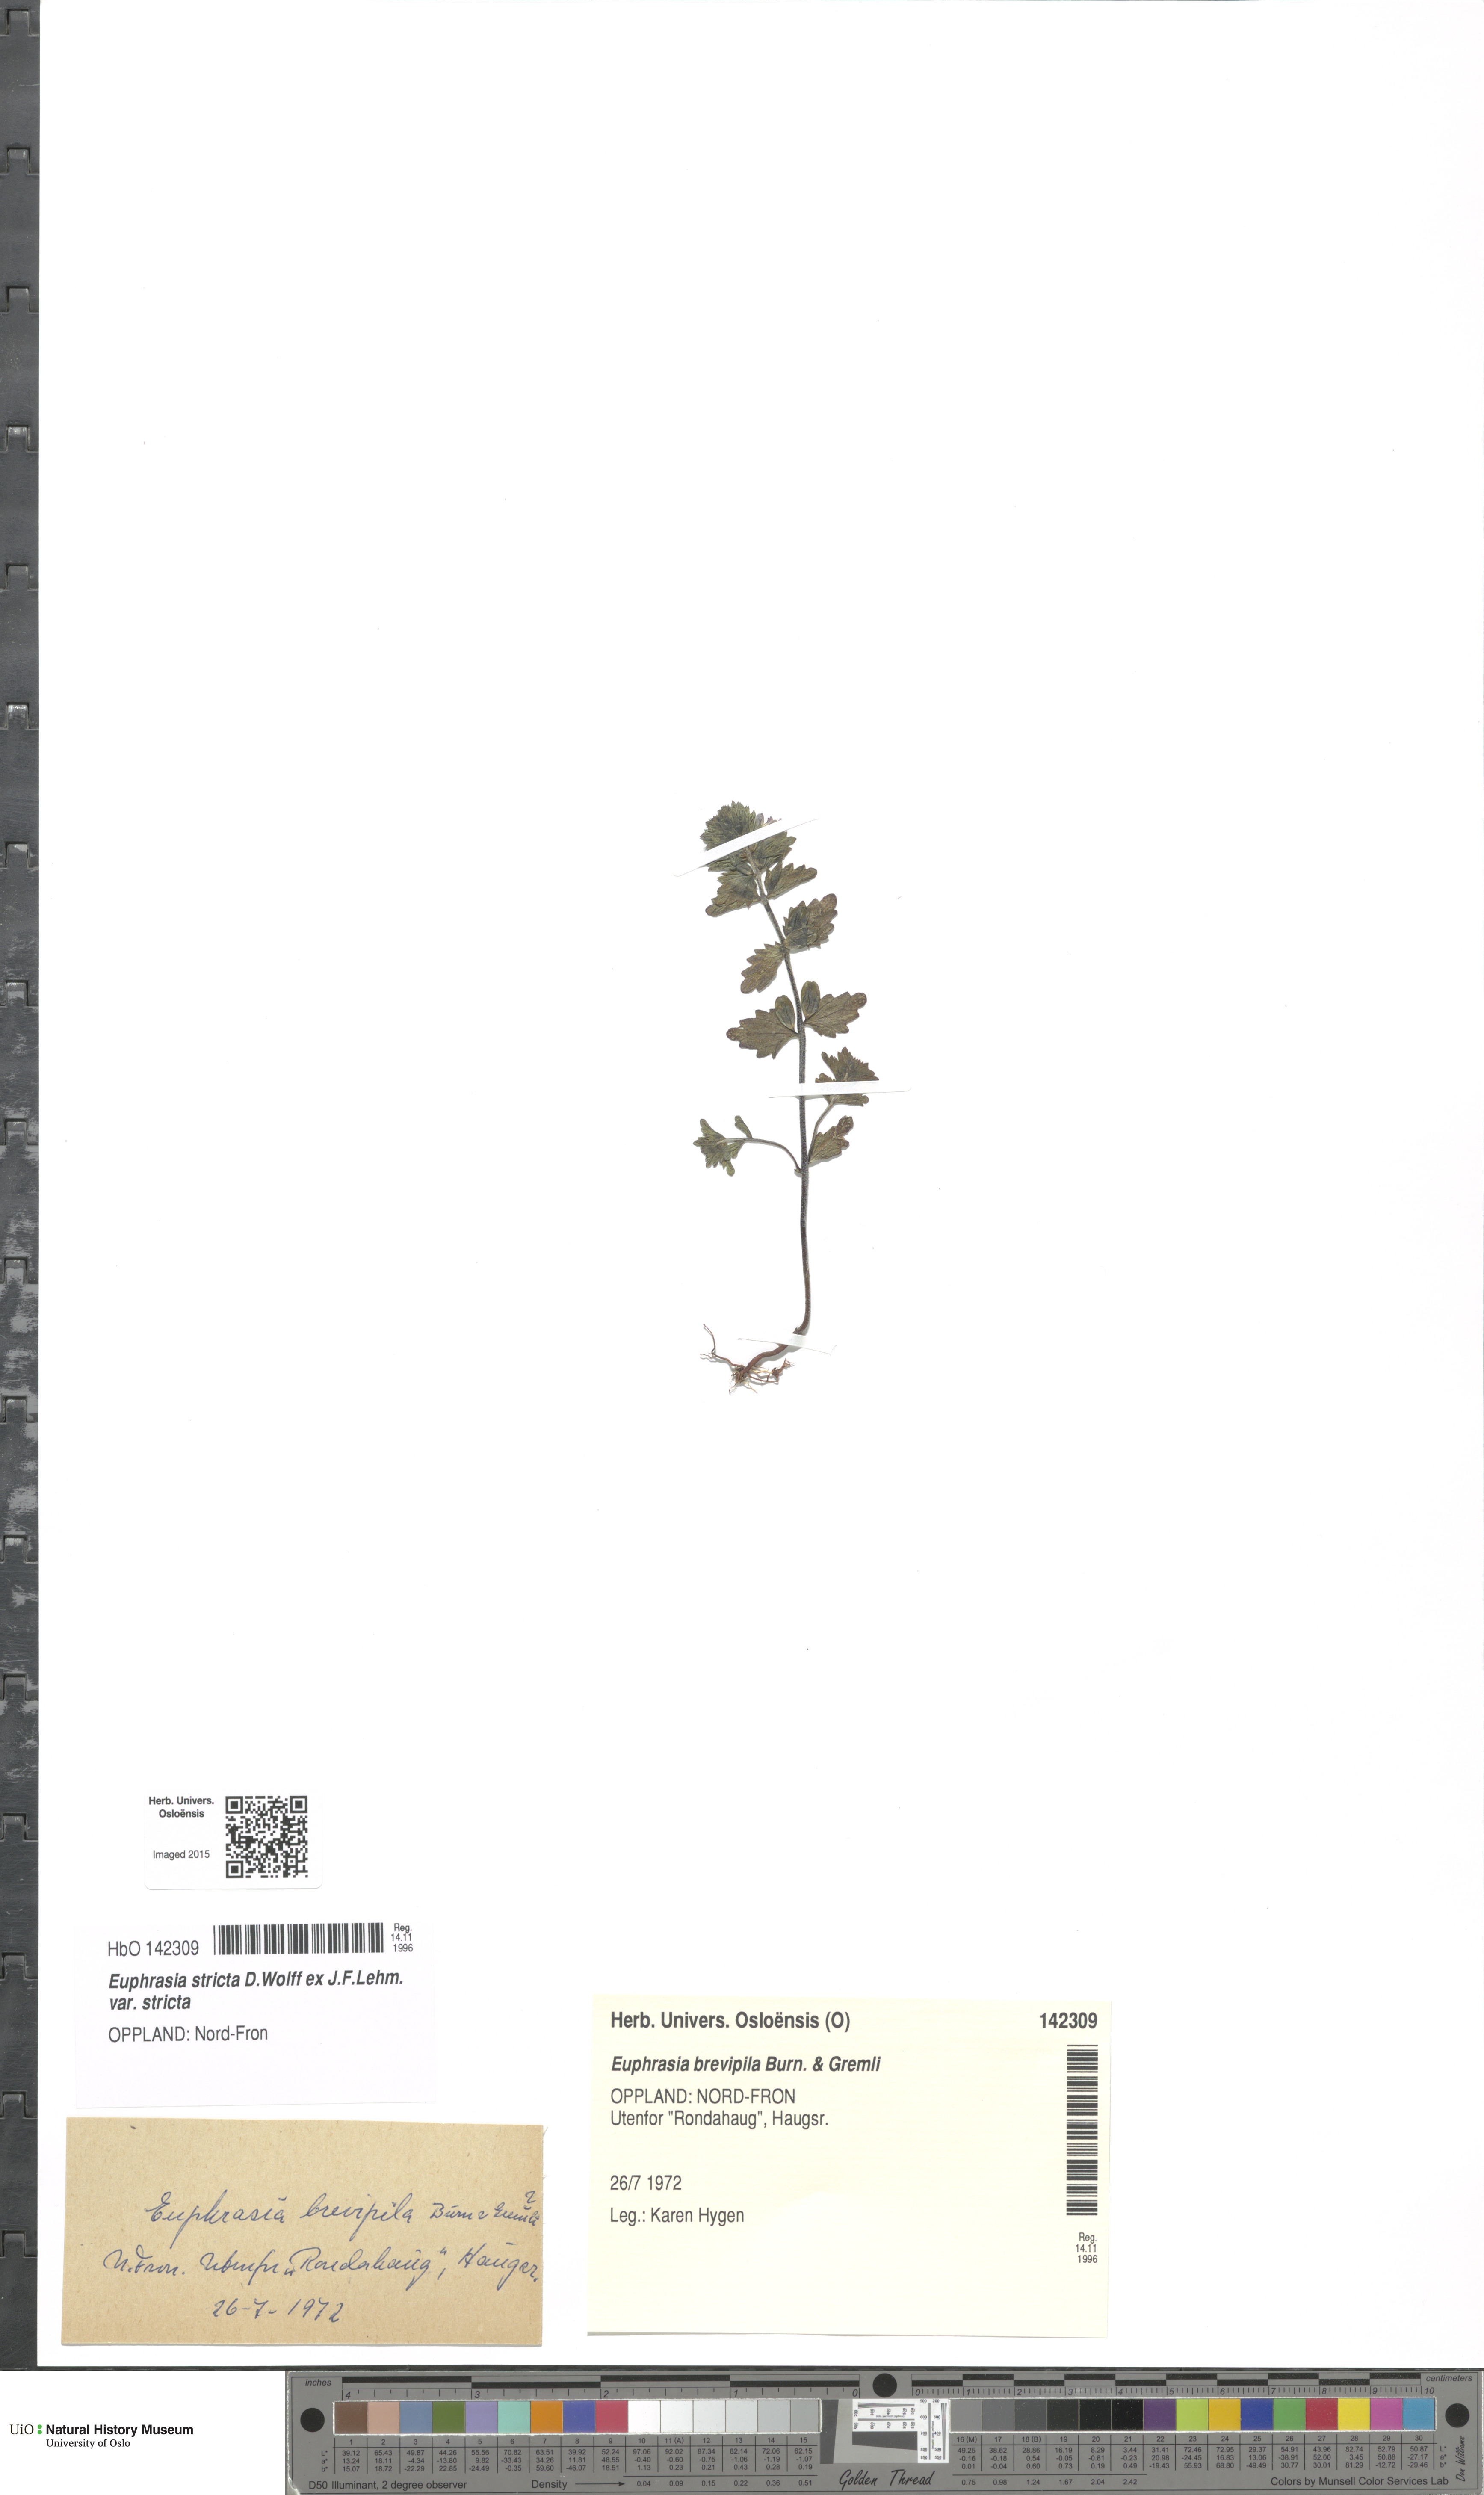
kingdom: Plantae
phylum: Tracheophyta
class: Magnoliopsida
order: Lamiales
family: Orobanchaceae
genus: Euphrasia
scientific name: Euphrasia vernalis
